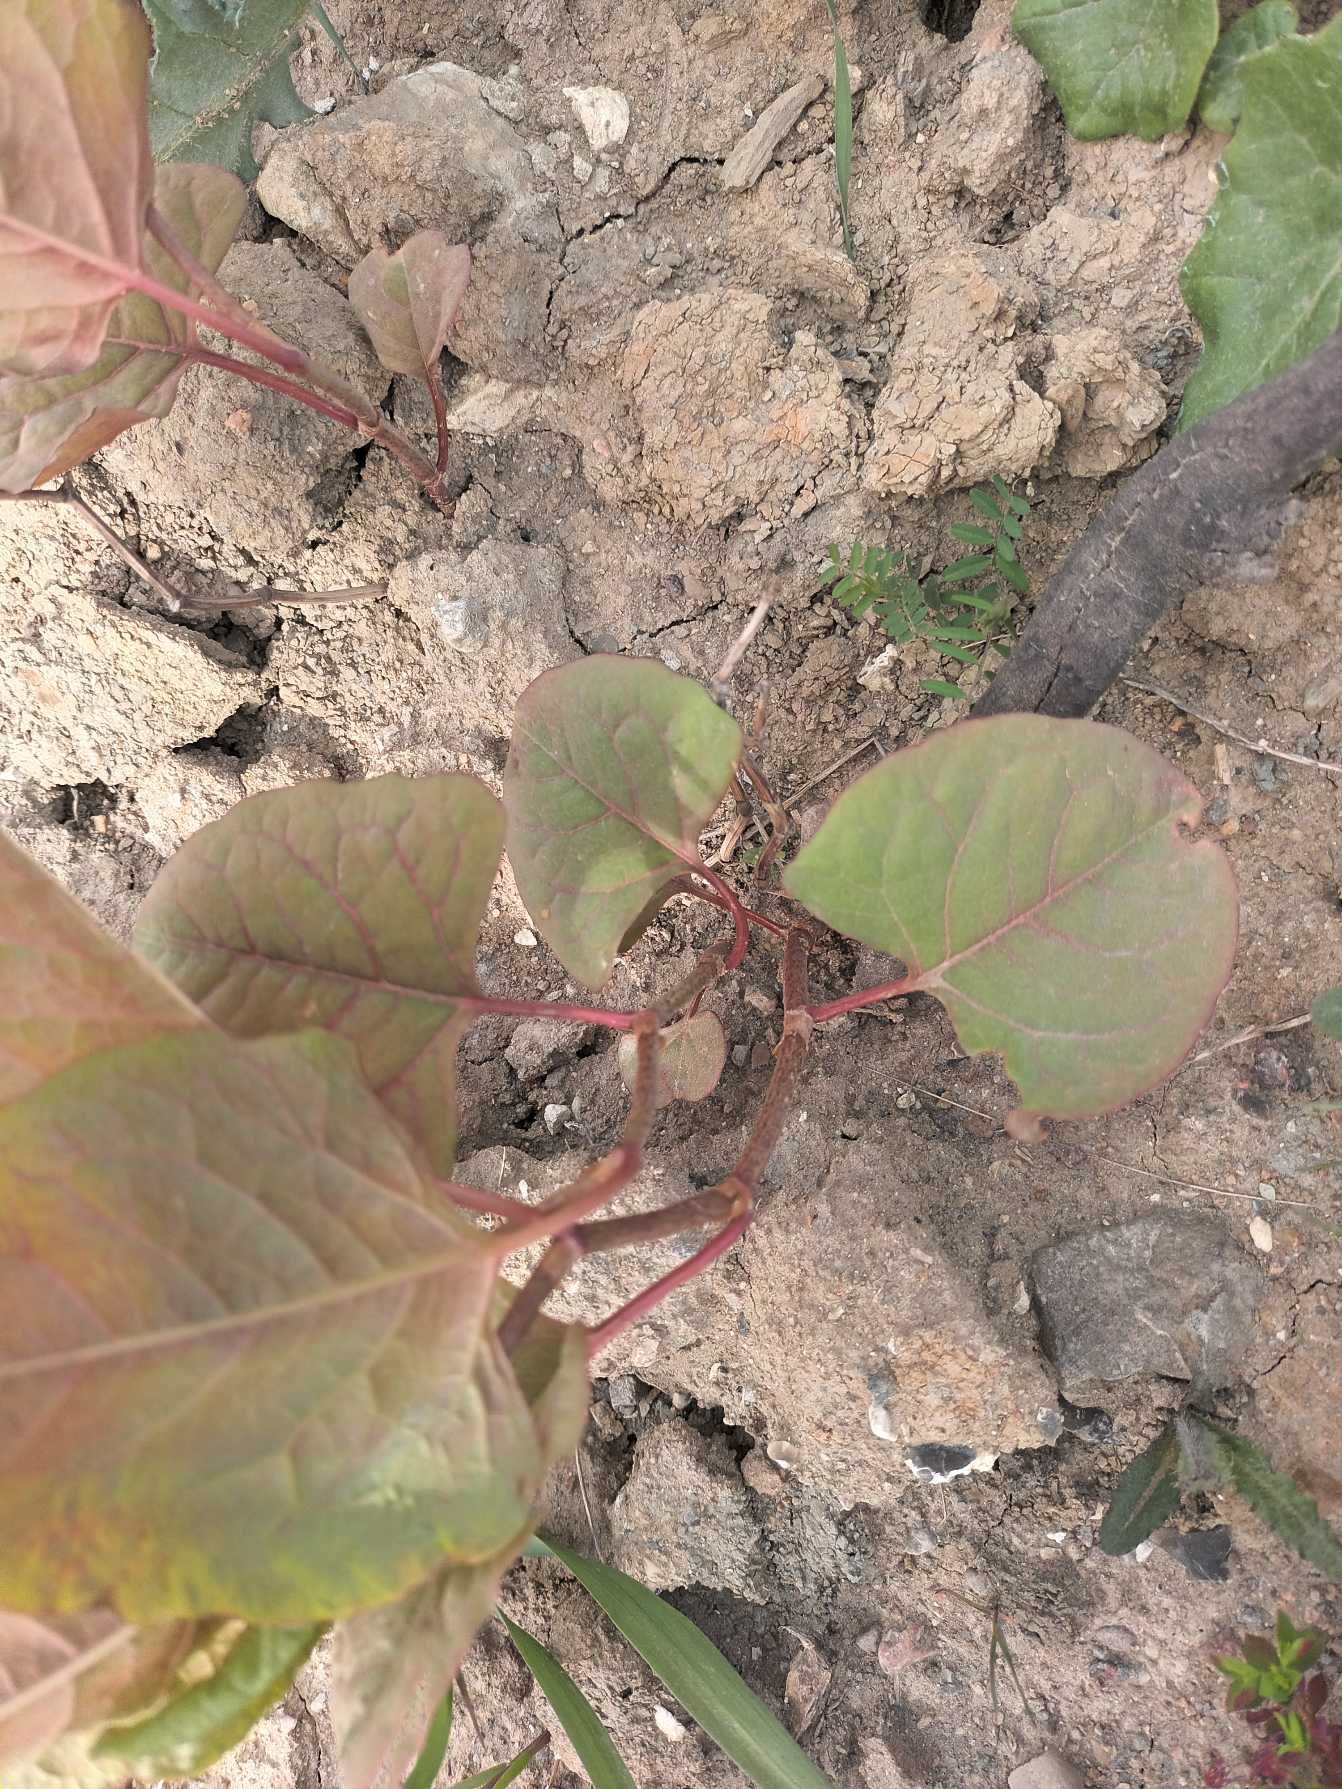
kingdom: Plantae
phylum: Tracheophyta
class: Magnoliopsida
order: Caryophyllales
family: Polygonaceae
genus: Reynoutria
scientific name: Reynoutria bohemica
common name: Hybrid-pileurt
